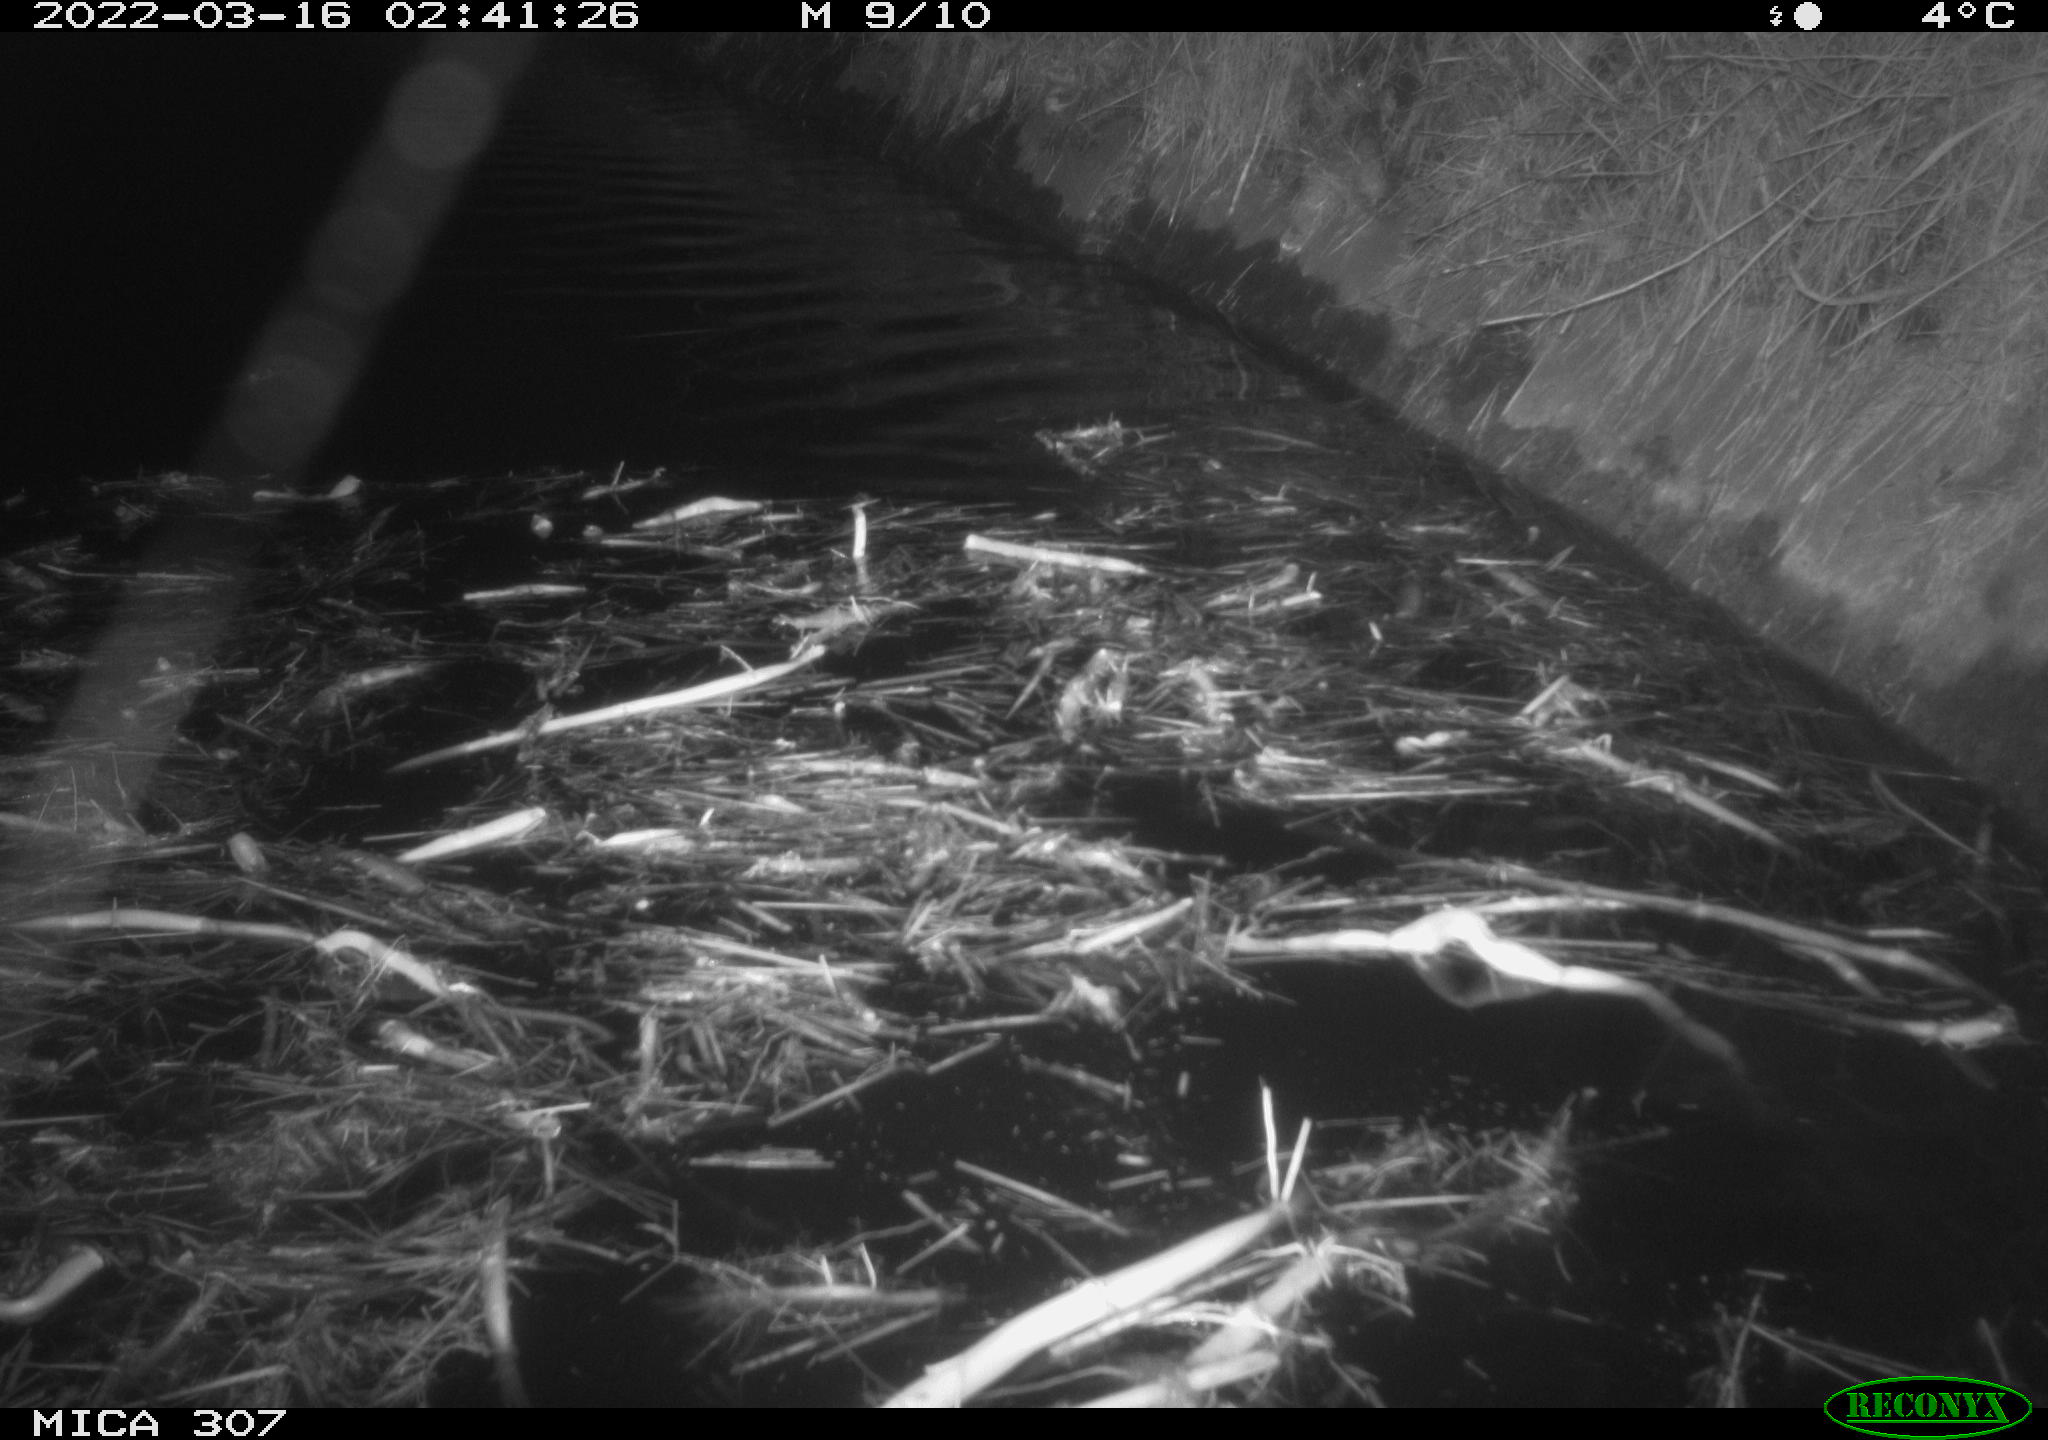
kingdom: Animalia
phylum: Chordata
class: Mammalia
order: Rodentia
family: Cricetidae
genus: Ondatra
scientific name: Ondatra zibethicus
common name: Muskrat
